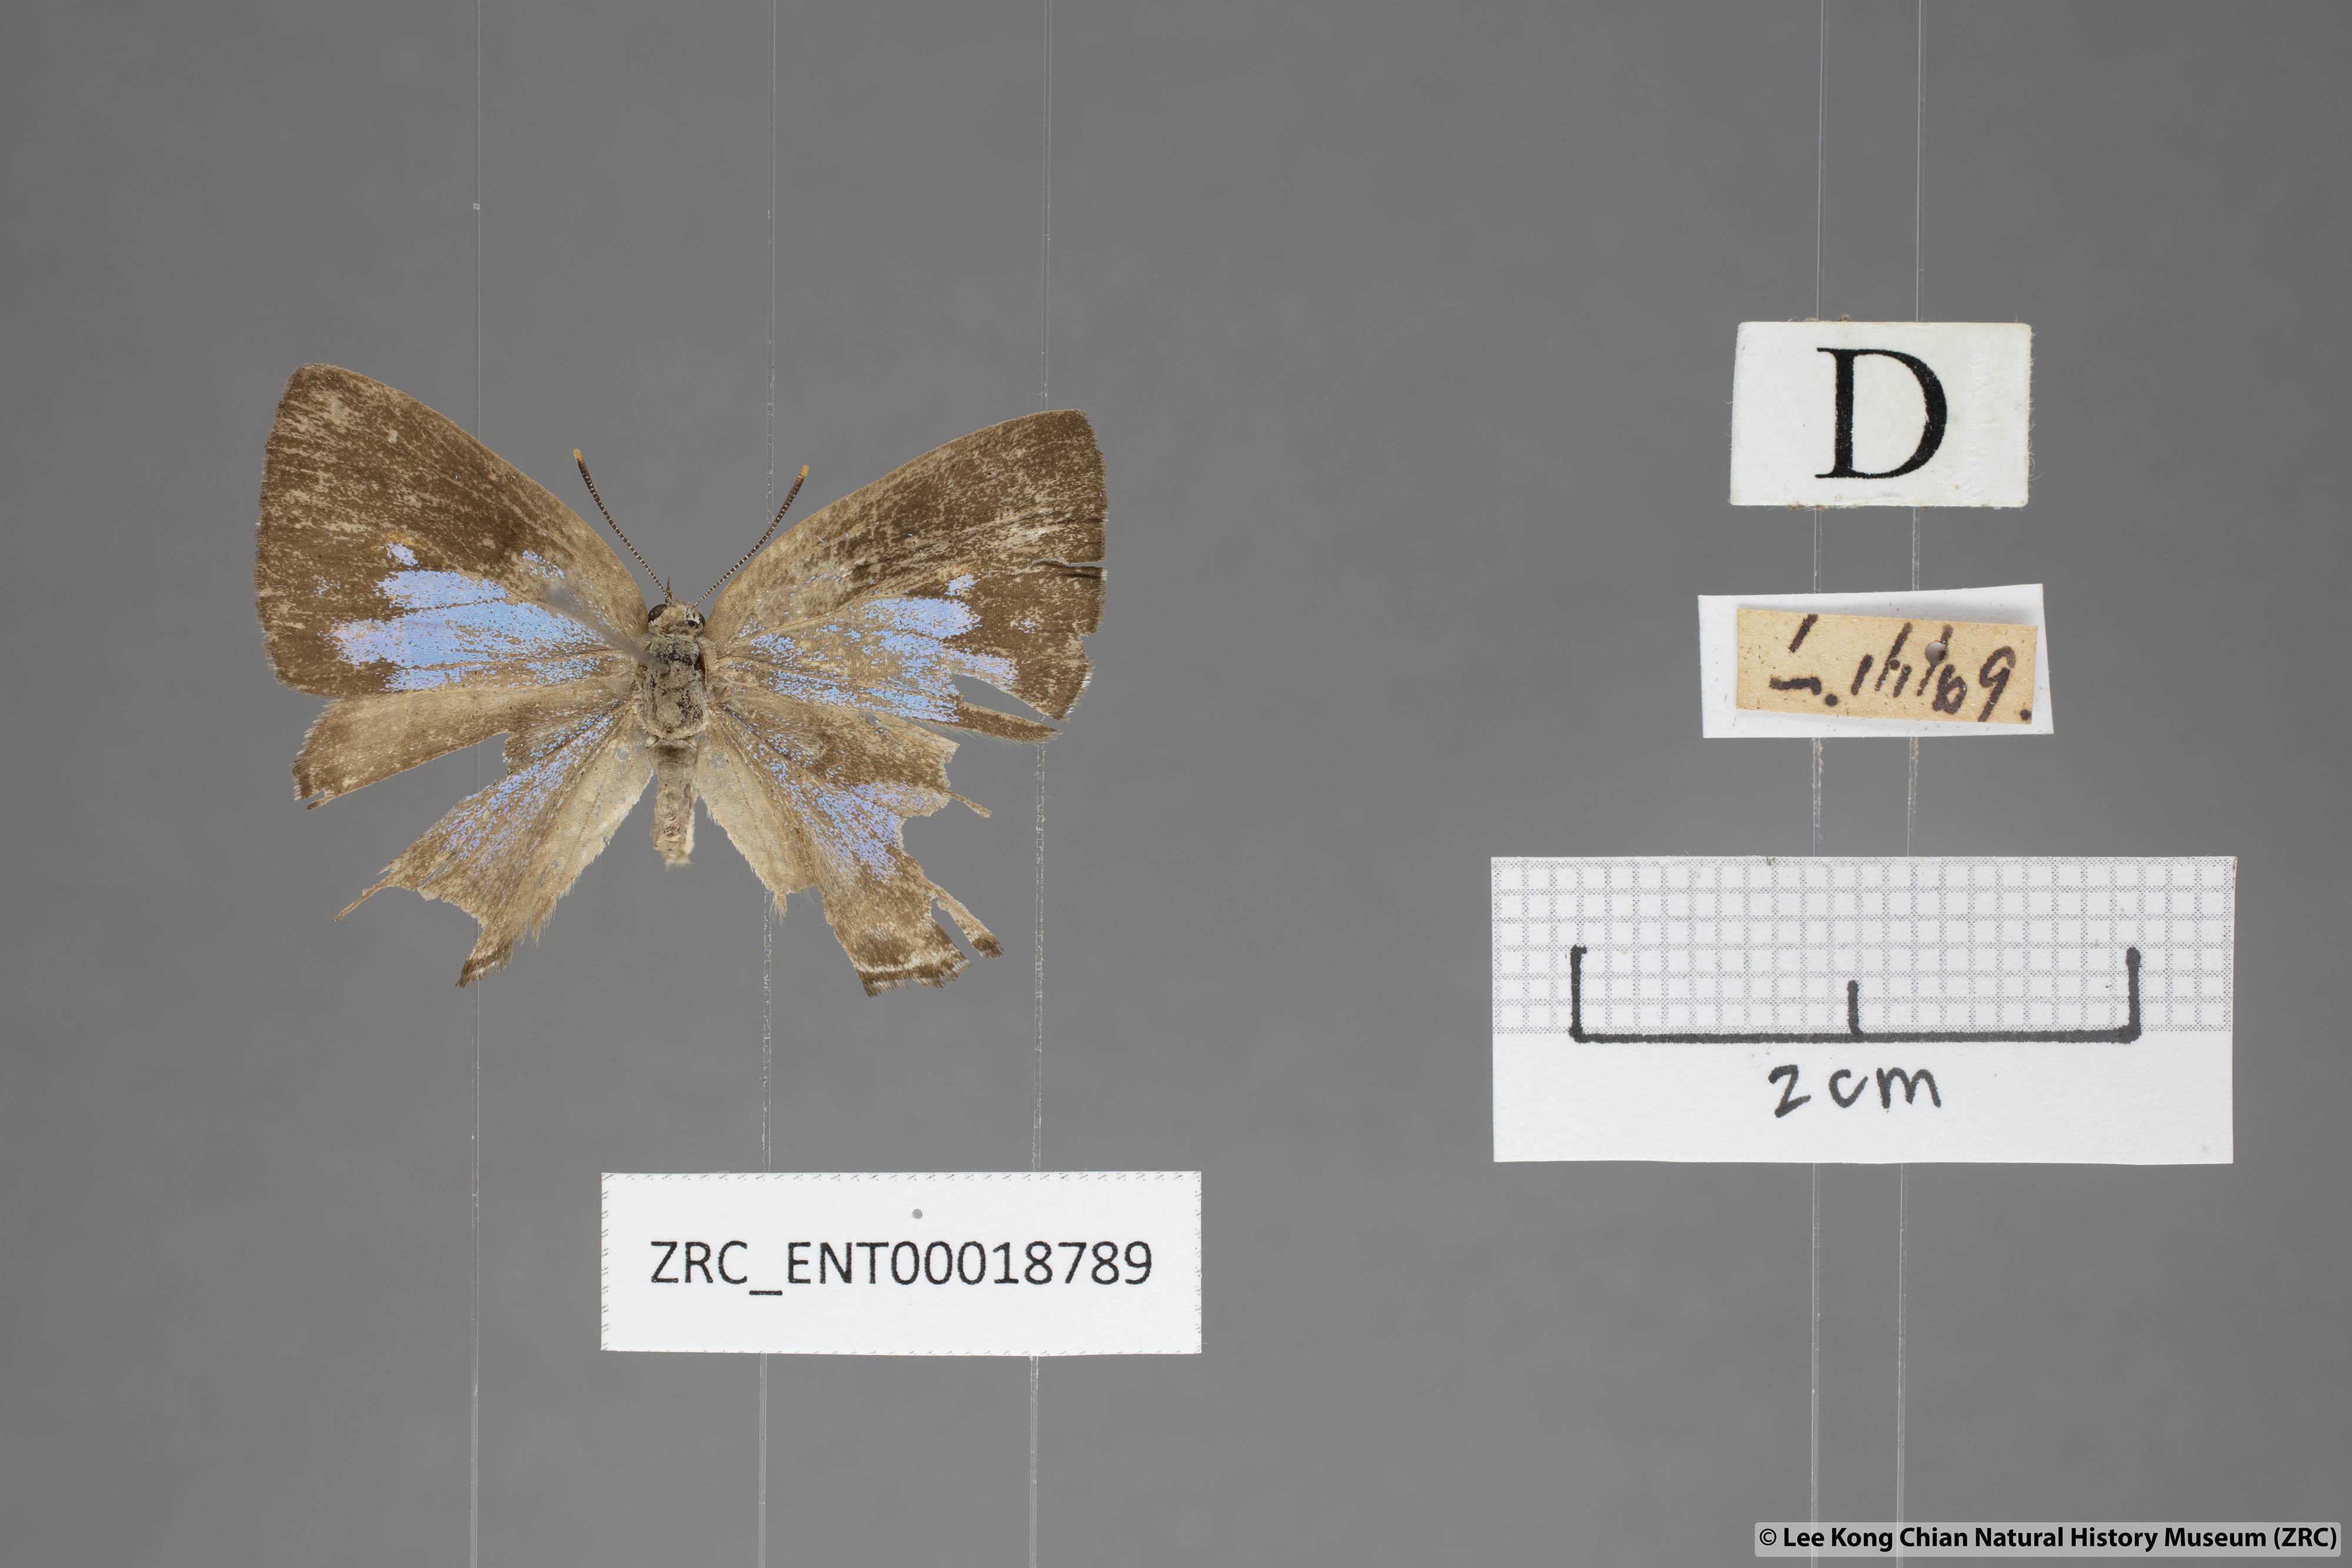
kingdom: Animalia
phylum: Arthropoda
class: Insecta
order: Lepidoptera
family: Lycaenidae
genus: Poritia
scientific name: Poritia manilia
